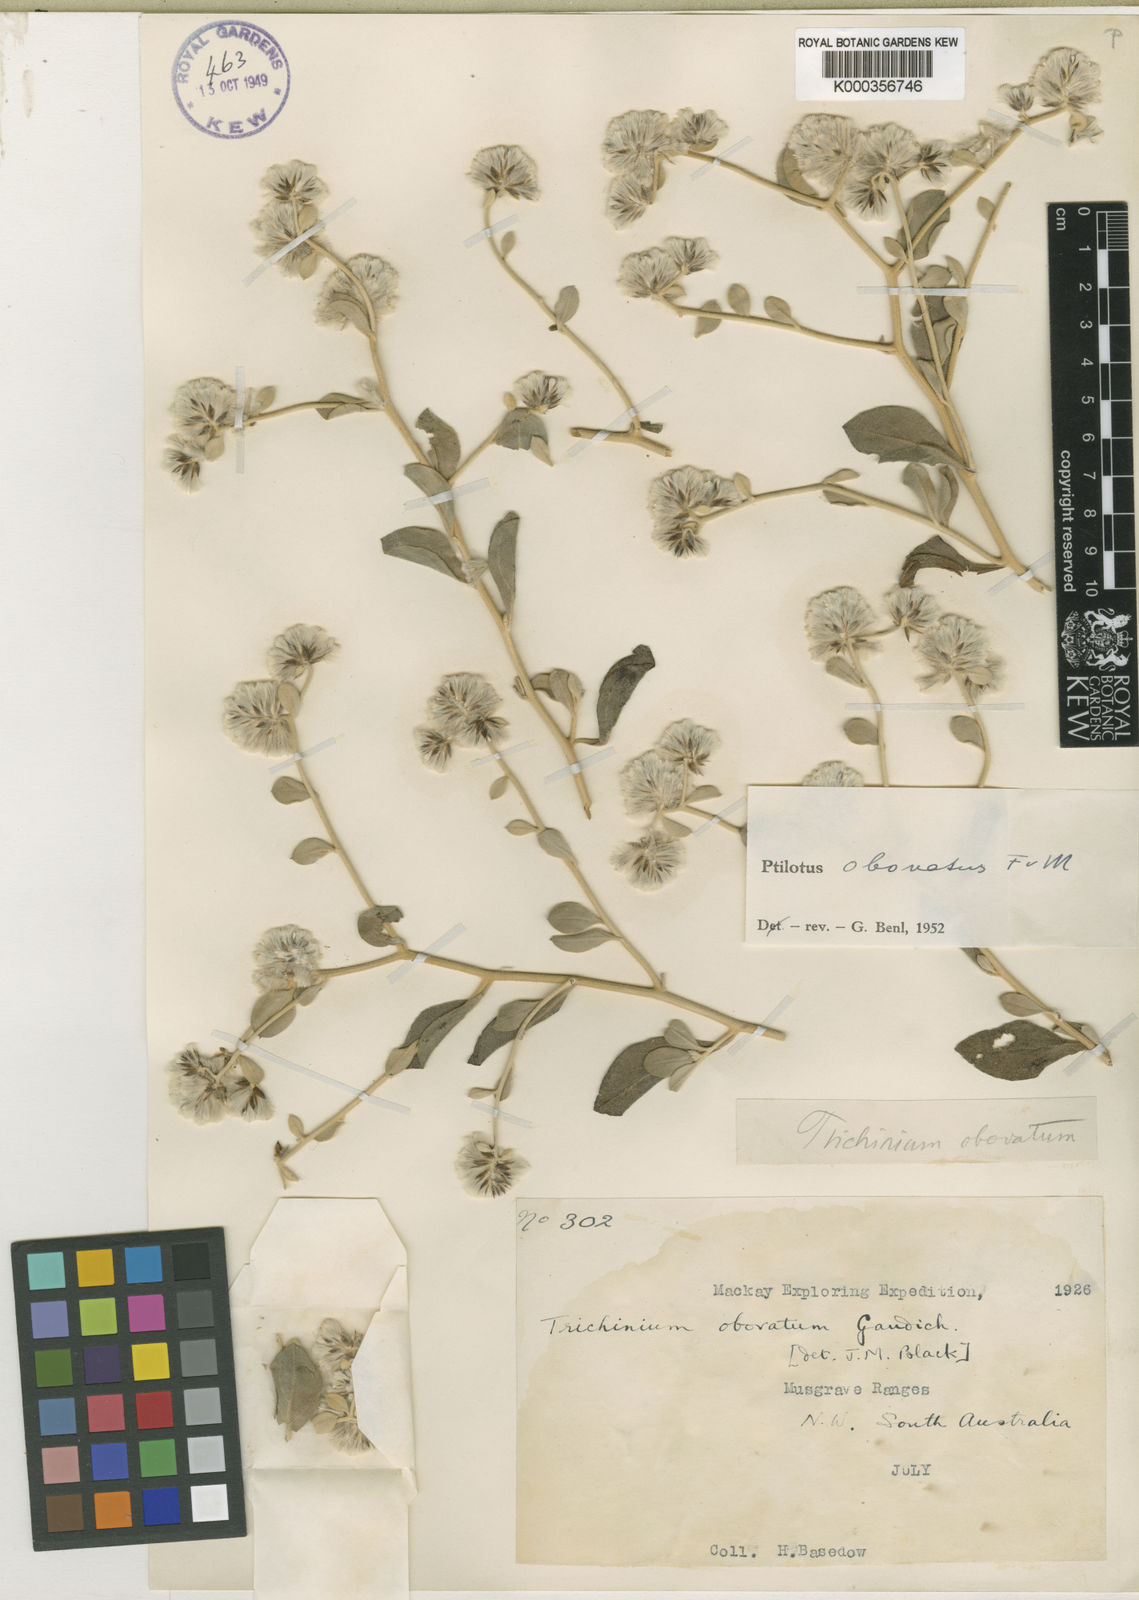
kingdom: Plantae
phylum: Tracheophyta
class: Magnoliopsida
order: Caryophyllales
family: Amaranthaceae
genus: Ptilotus
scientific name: Ptilotus obovatus
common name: Cottonbush
